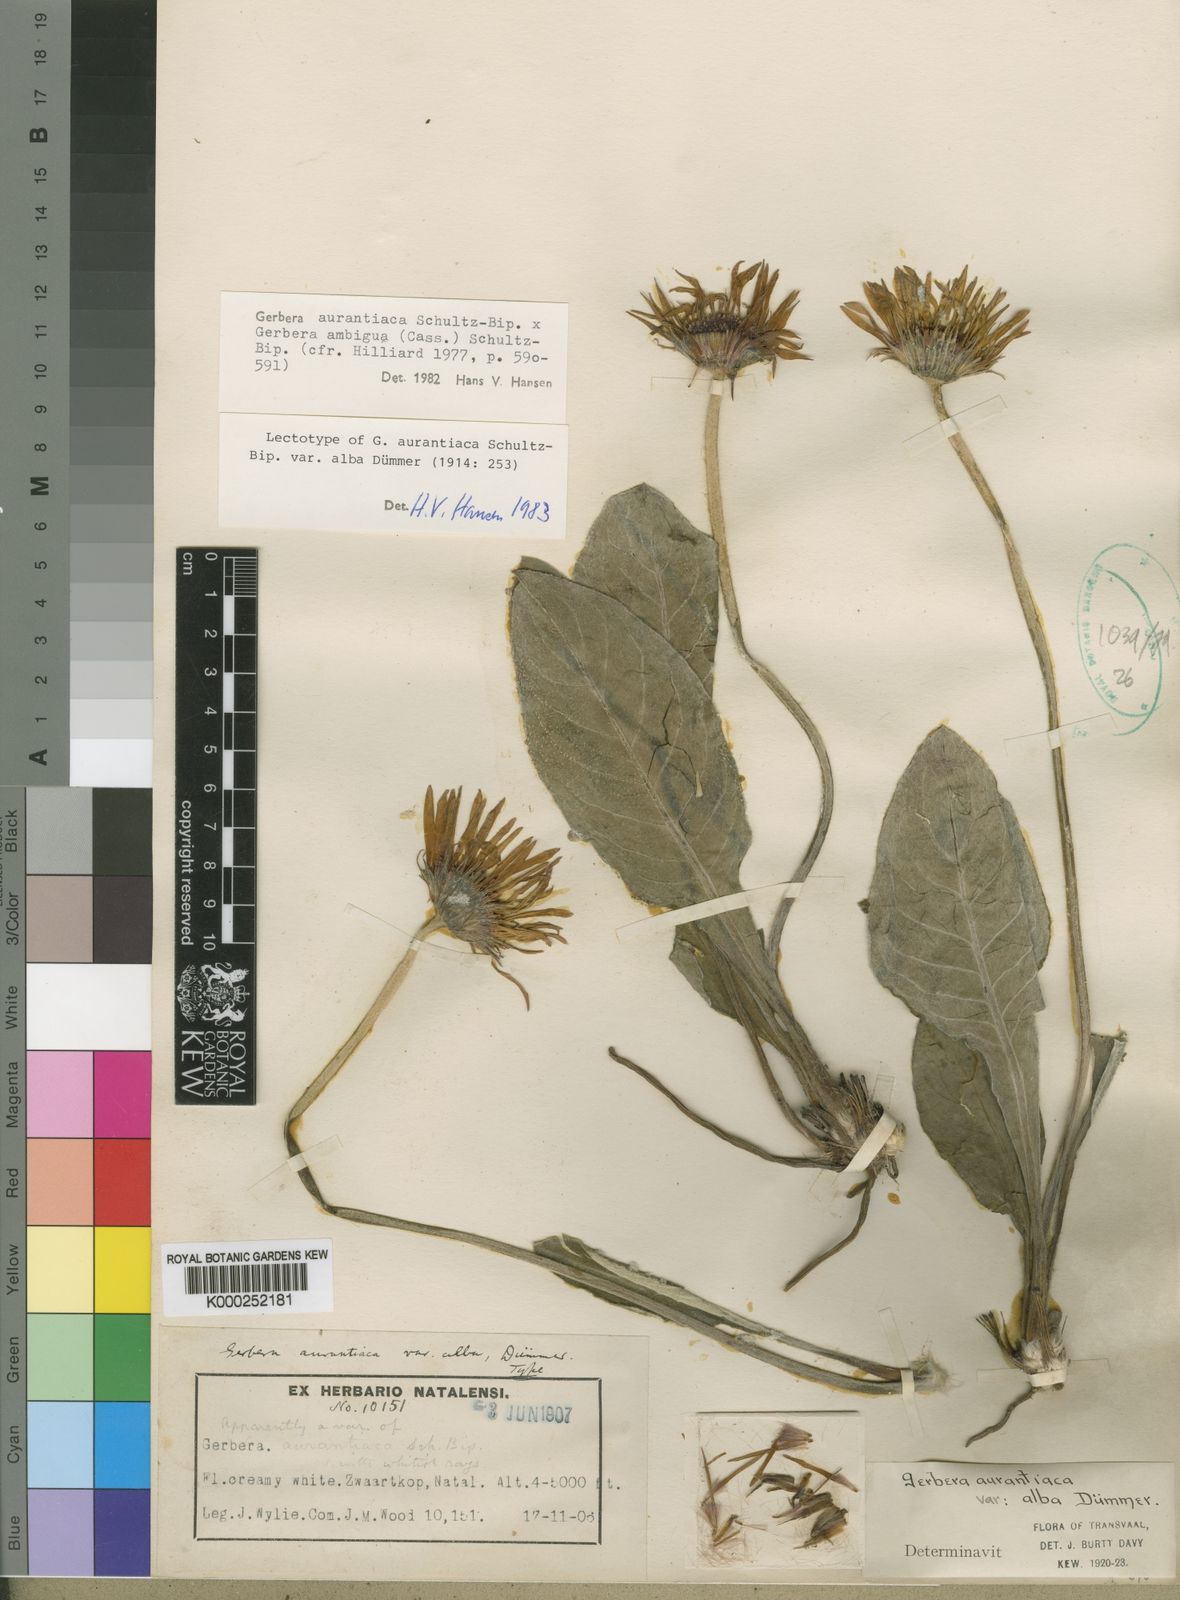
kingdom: Plantae
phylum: Tracheophyta
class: Magnoliopsida
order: Asterales
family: Asteraceae
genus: Gerbera
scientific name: Gerbera aurantiaca
